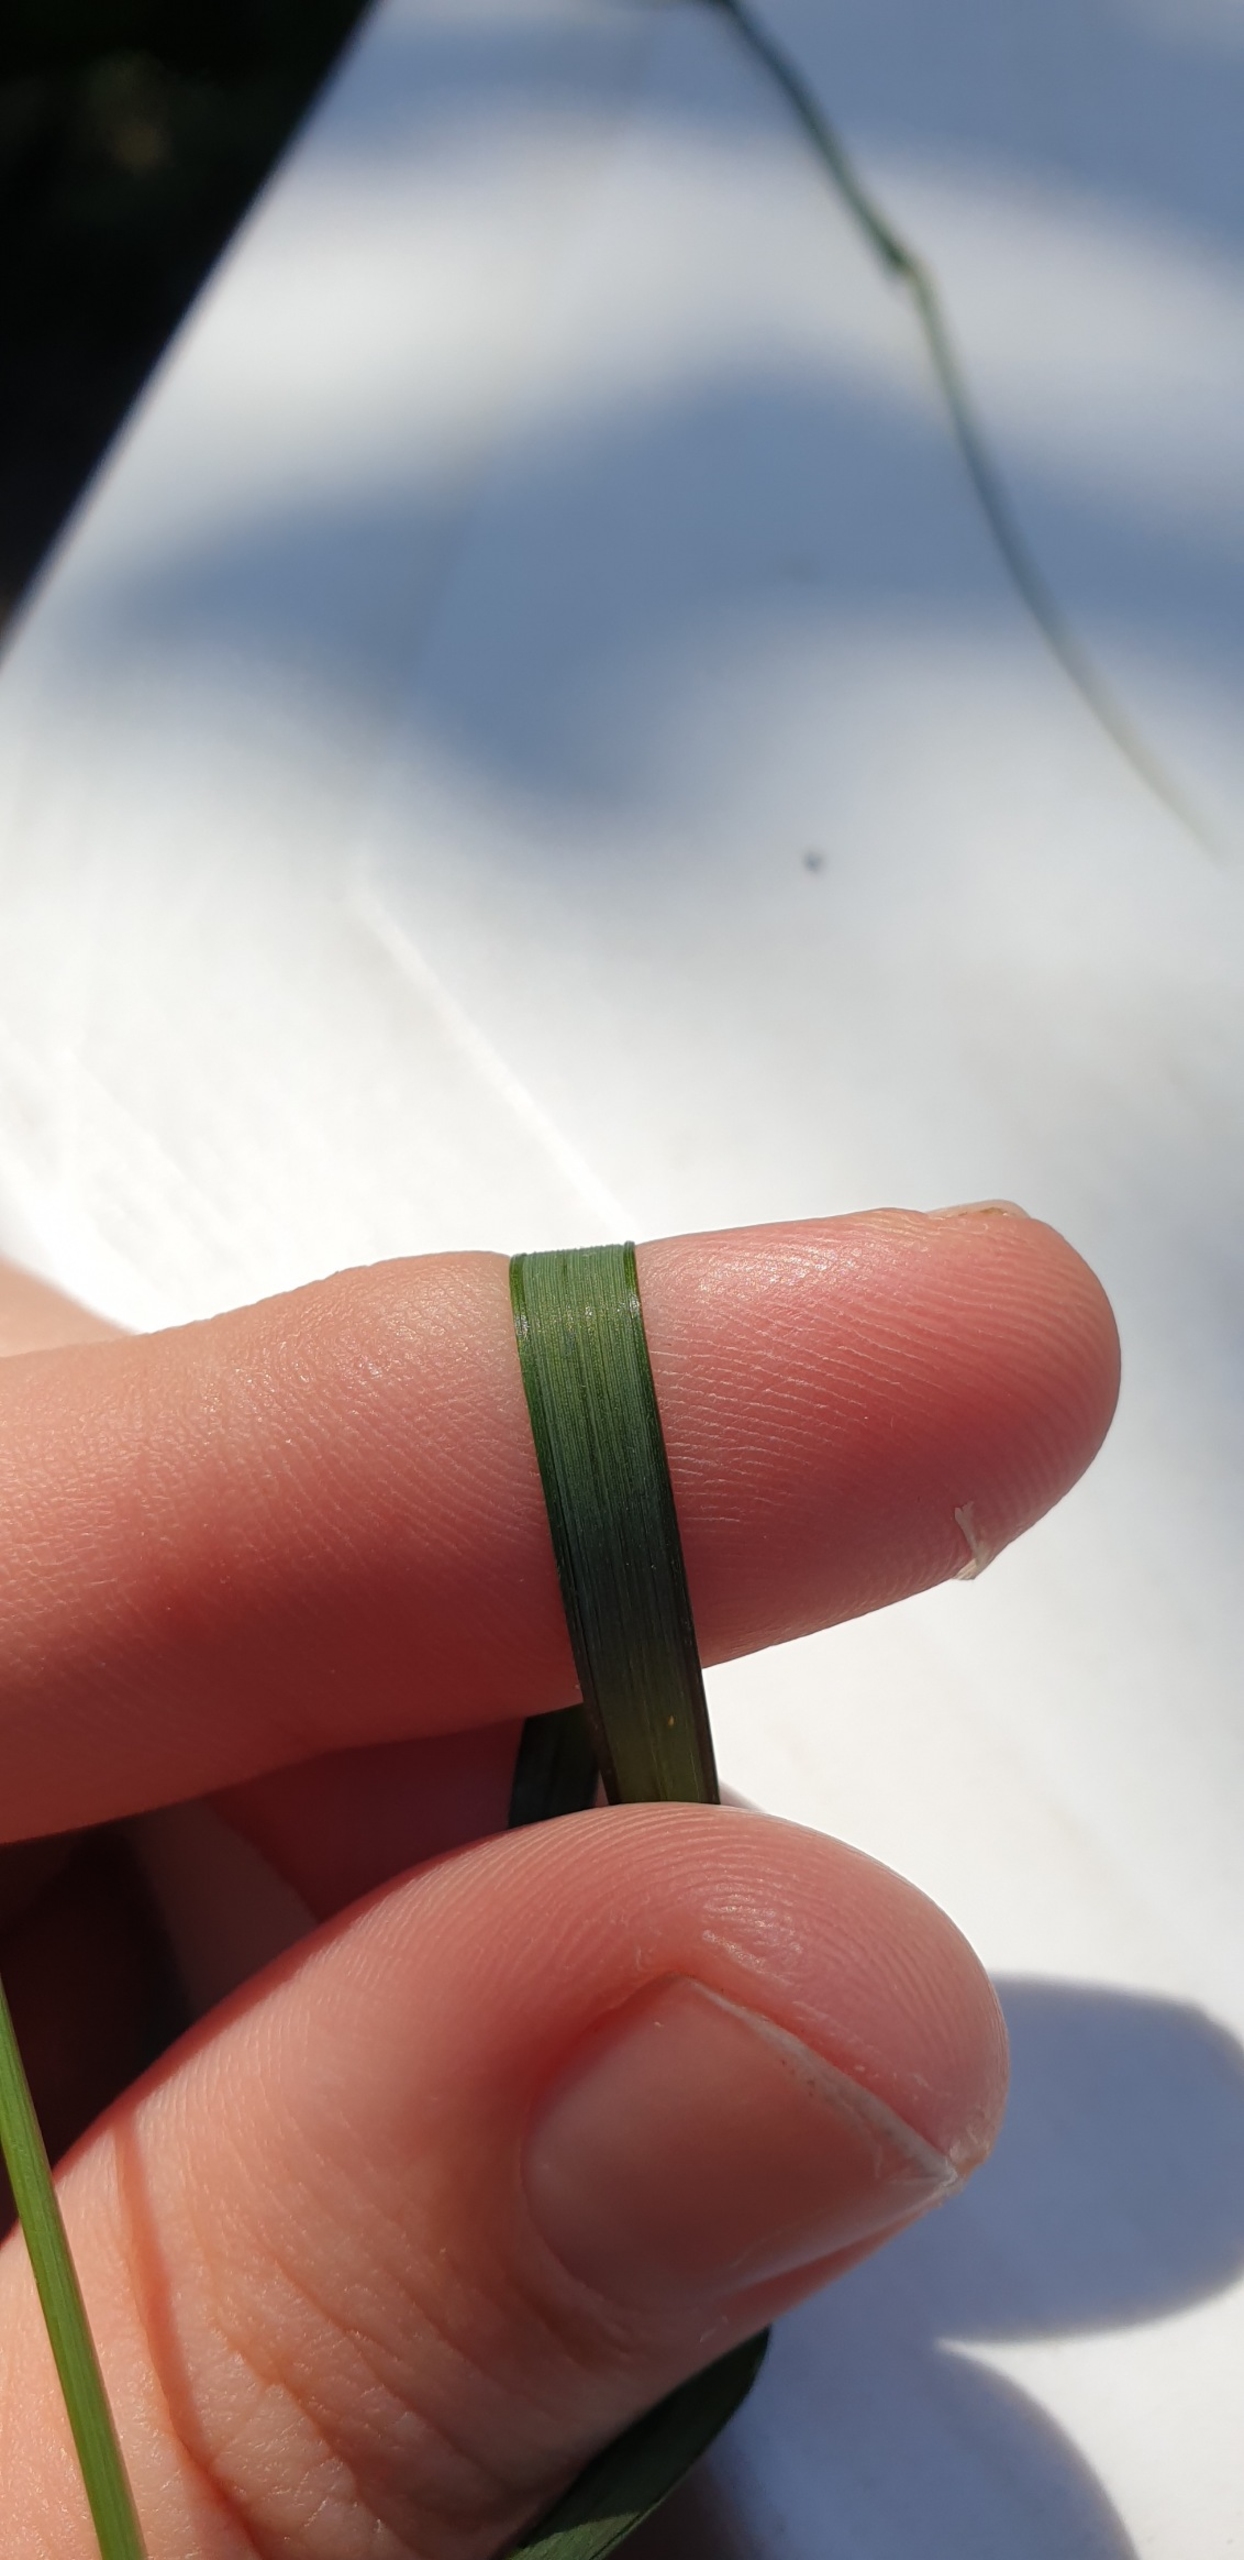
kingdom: Plantae
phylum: Tracheophyta
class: Liliopsida
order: Poales
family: Poaceae
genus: Elymus
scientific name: Elymus repens
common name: Almindelig kvik
